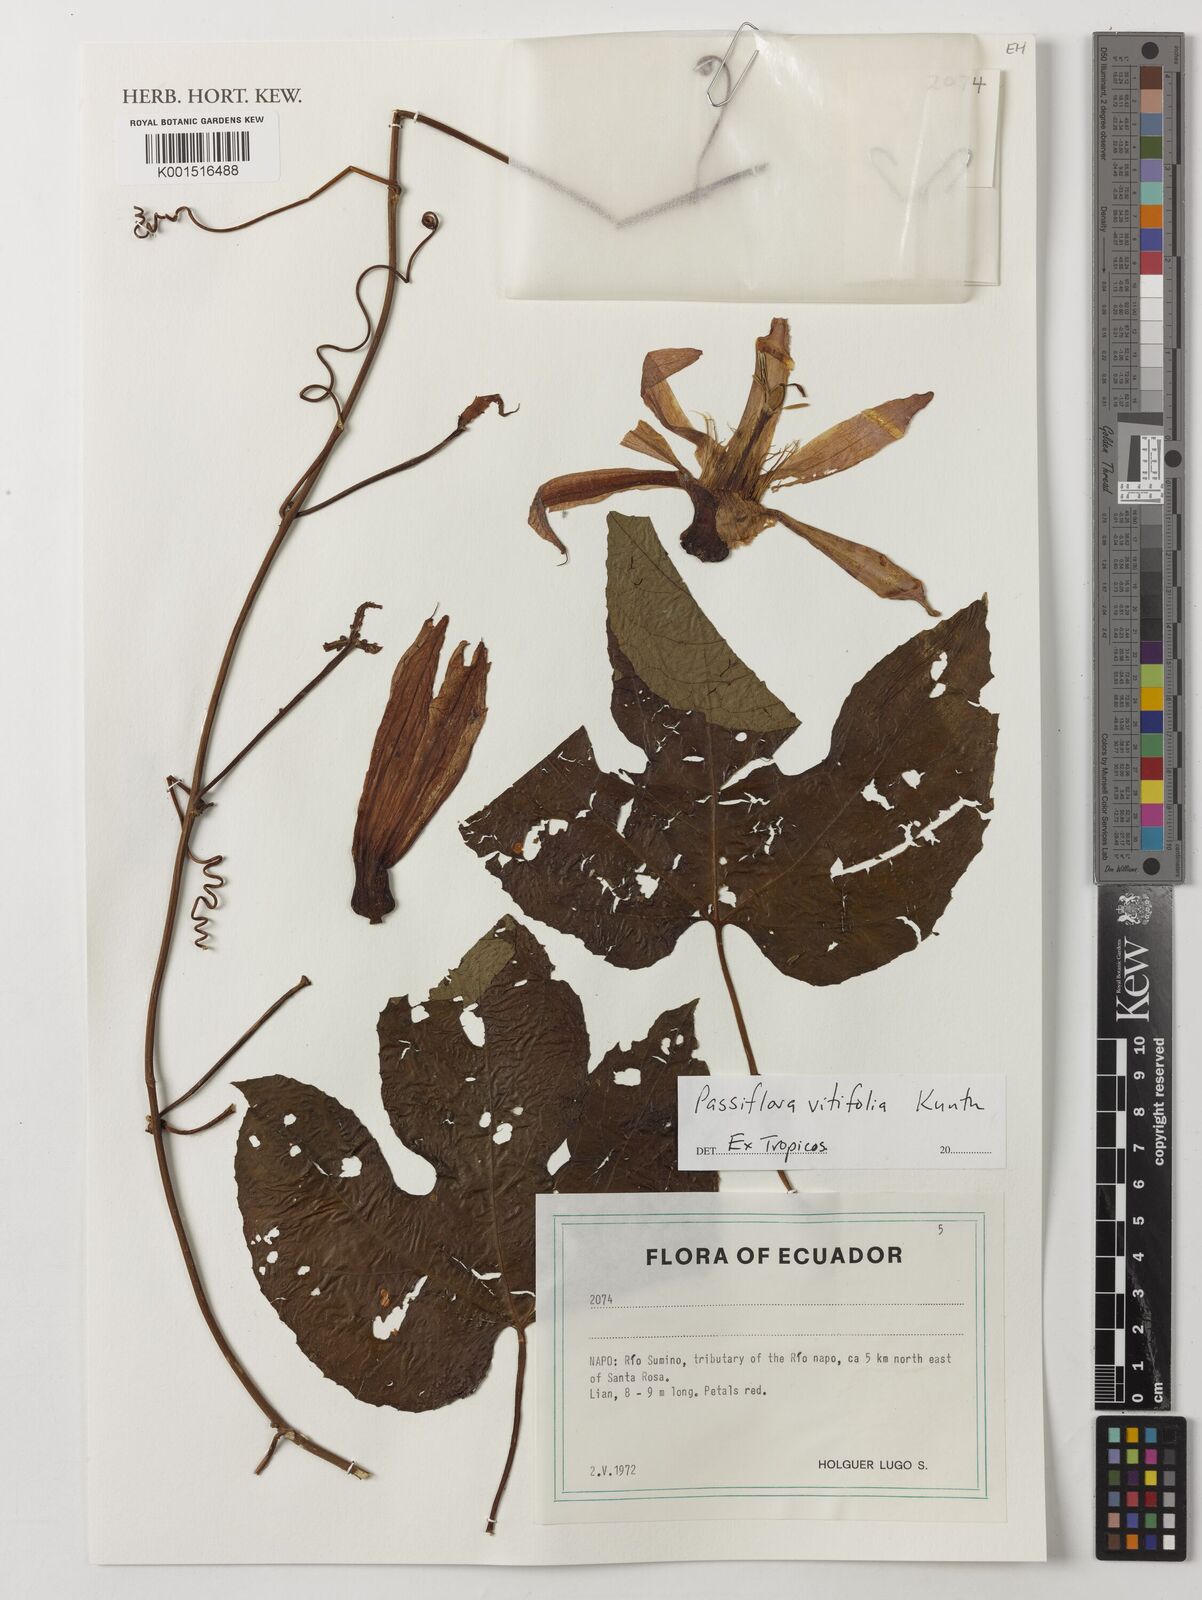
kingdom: Plantae
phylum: Tracheophyta
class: Magnoliopsida
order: Malpighiales
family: Passifloraceae
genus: Passiflora
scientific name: Passiflora vitifolia
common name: Perfumed passionflower
